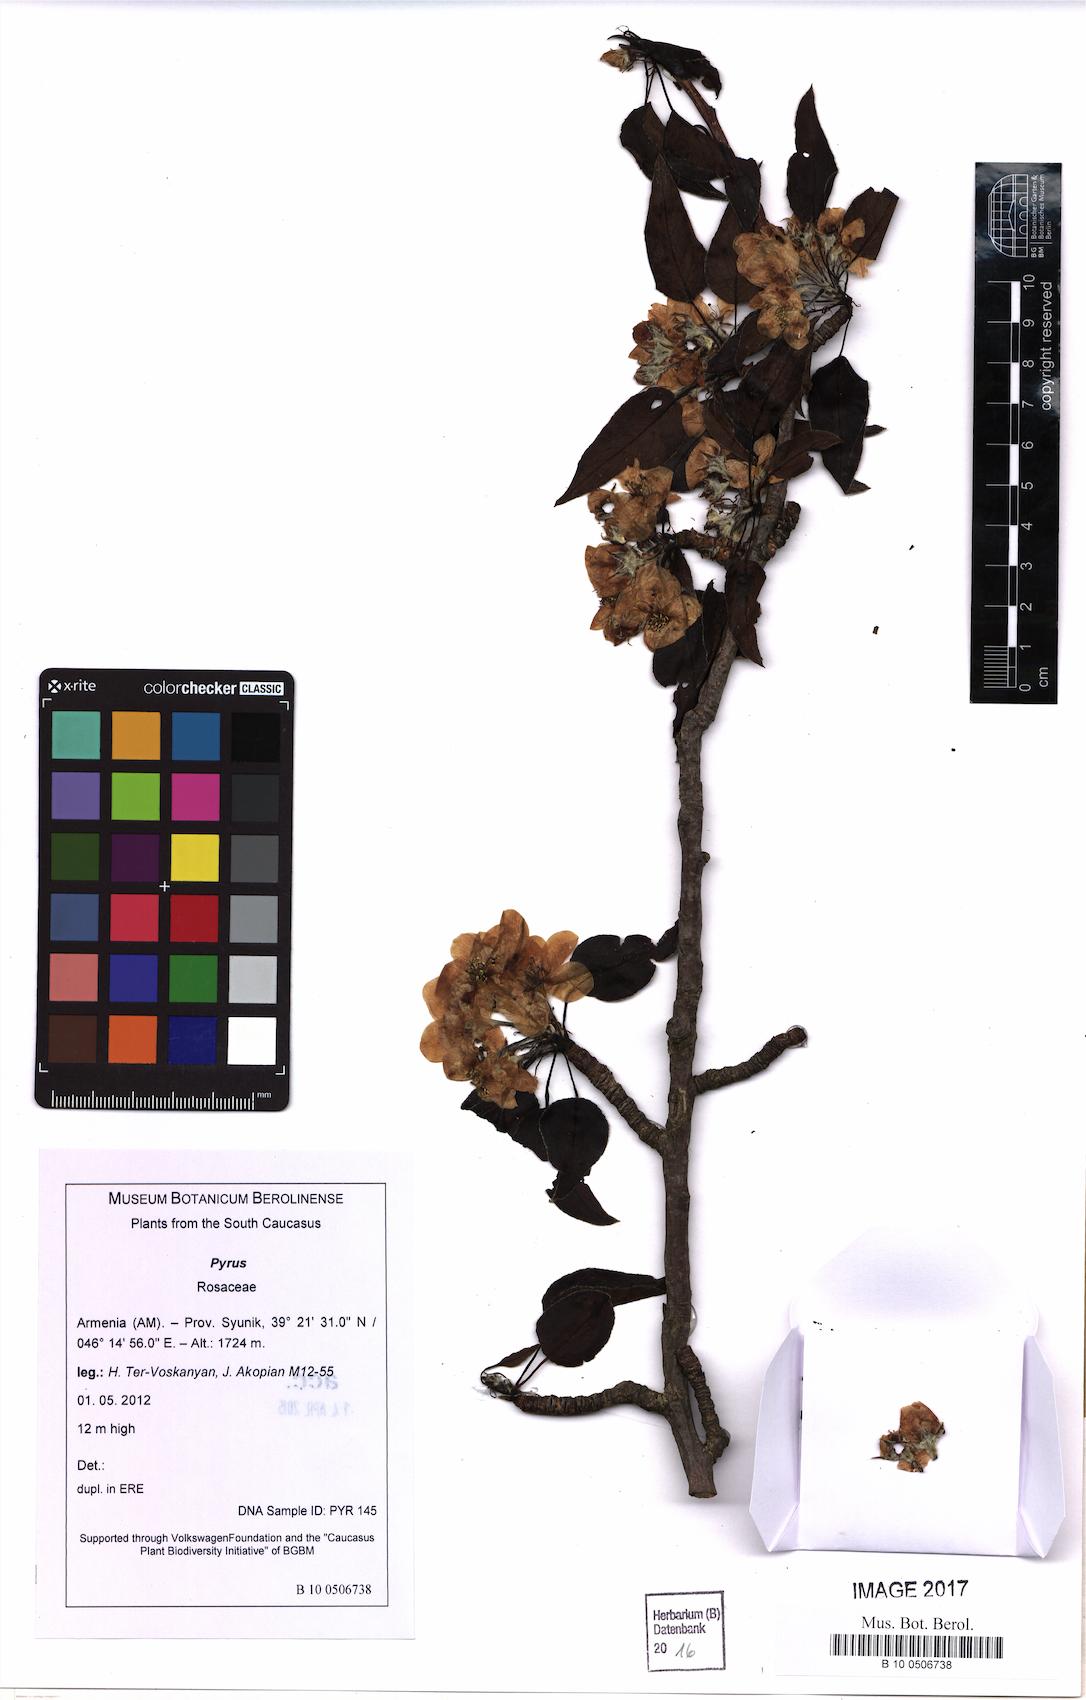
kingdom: Plantae
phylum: Tracheophyta
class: Magnoliopsida
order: Rosales
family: Rosaceae
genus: Pyrus
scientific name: Pyrus
